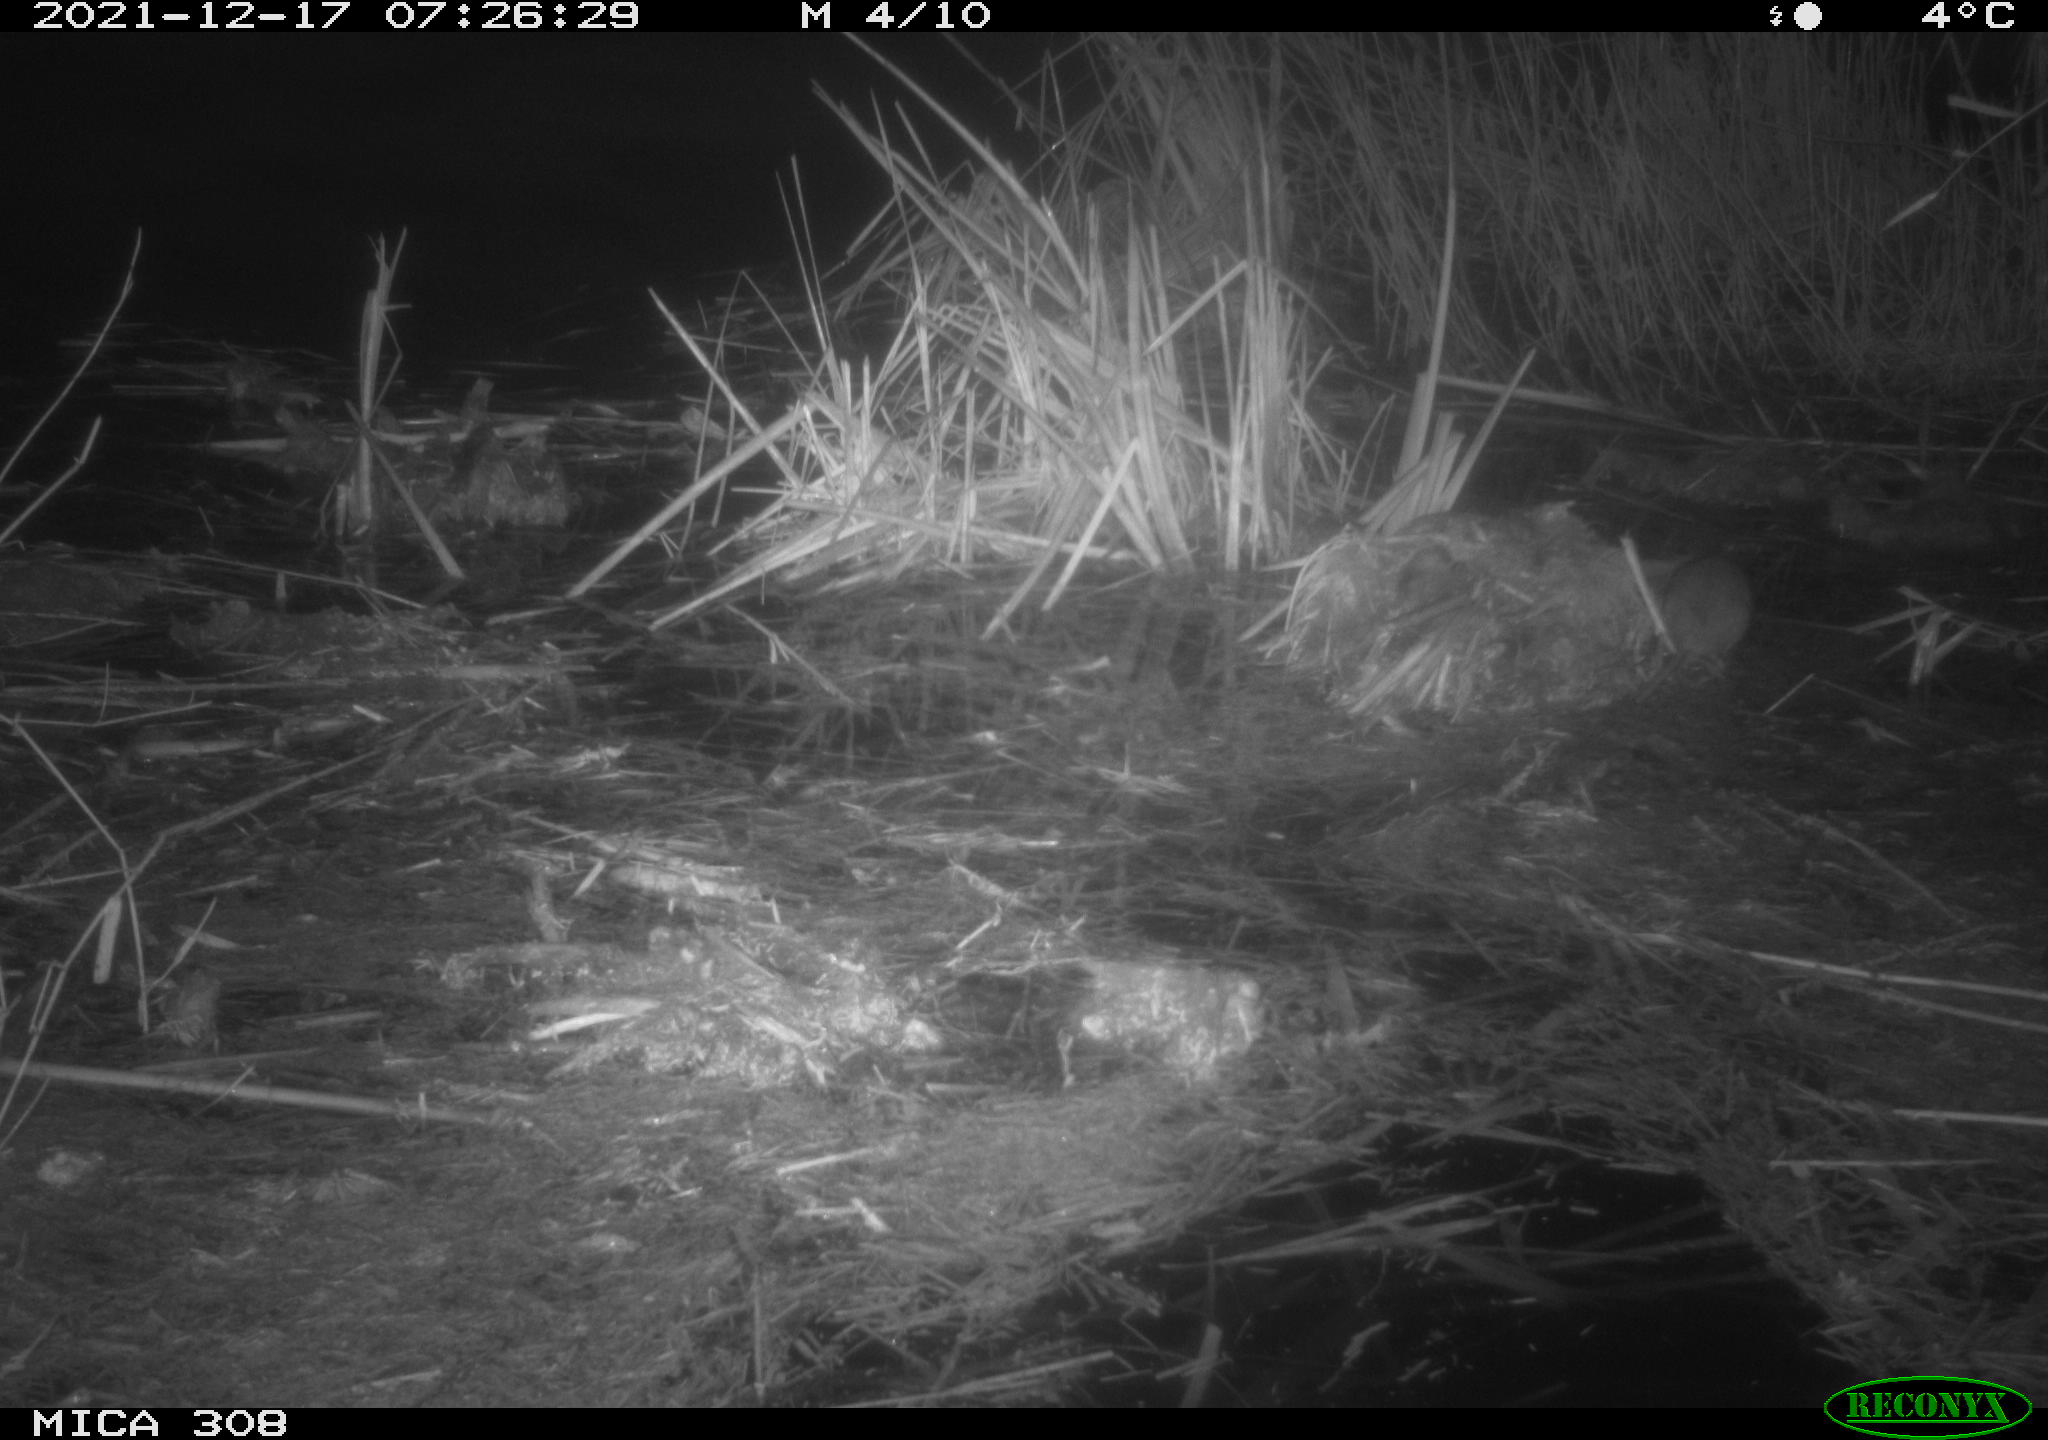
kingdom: Animalia
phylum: Chordata
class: Mammalia
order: Rodentia
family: Muridae
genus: Rattus
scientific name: Rattus norvegicus
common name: Brown rat
